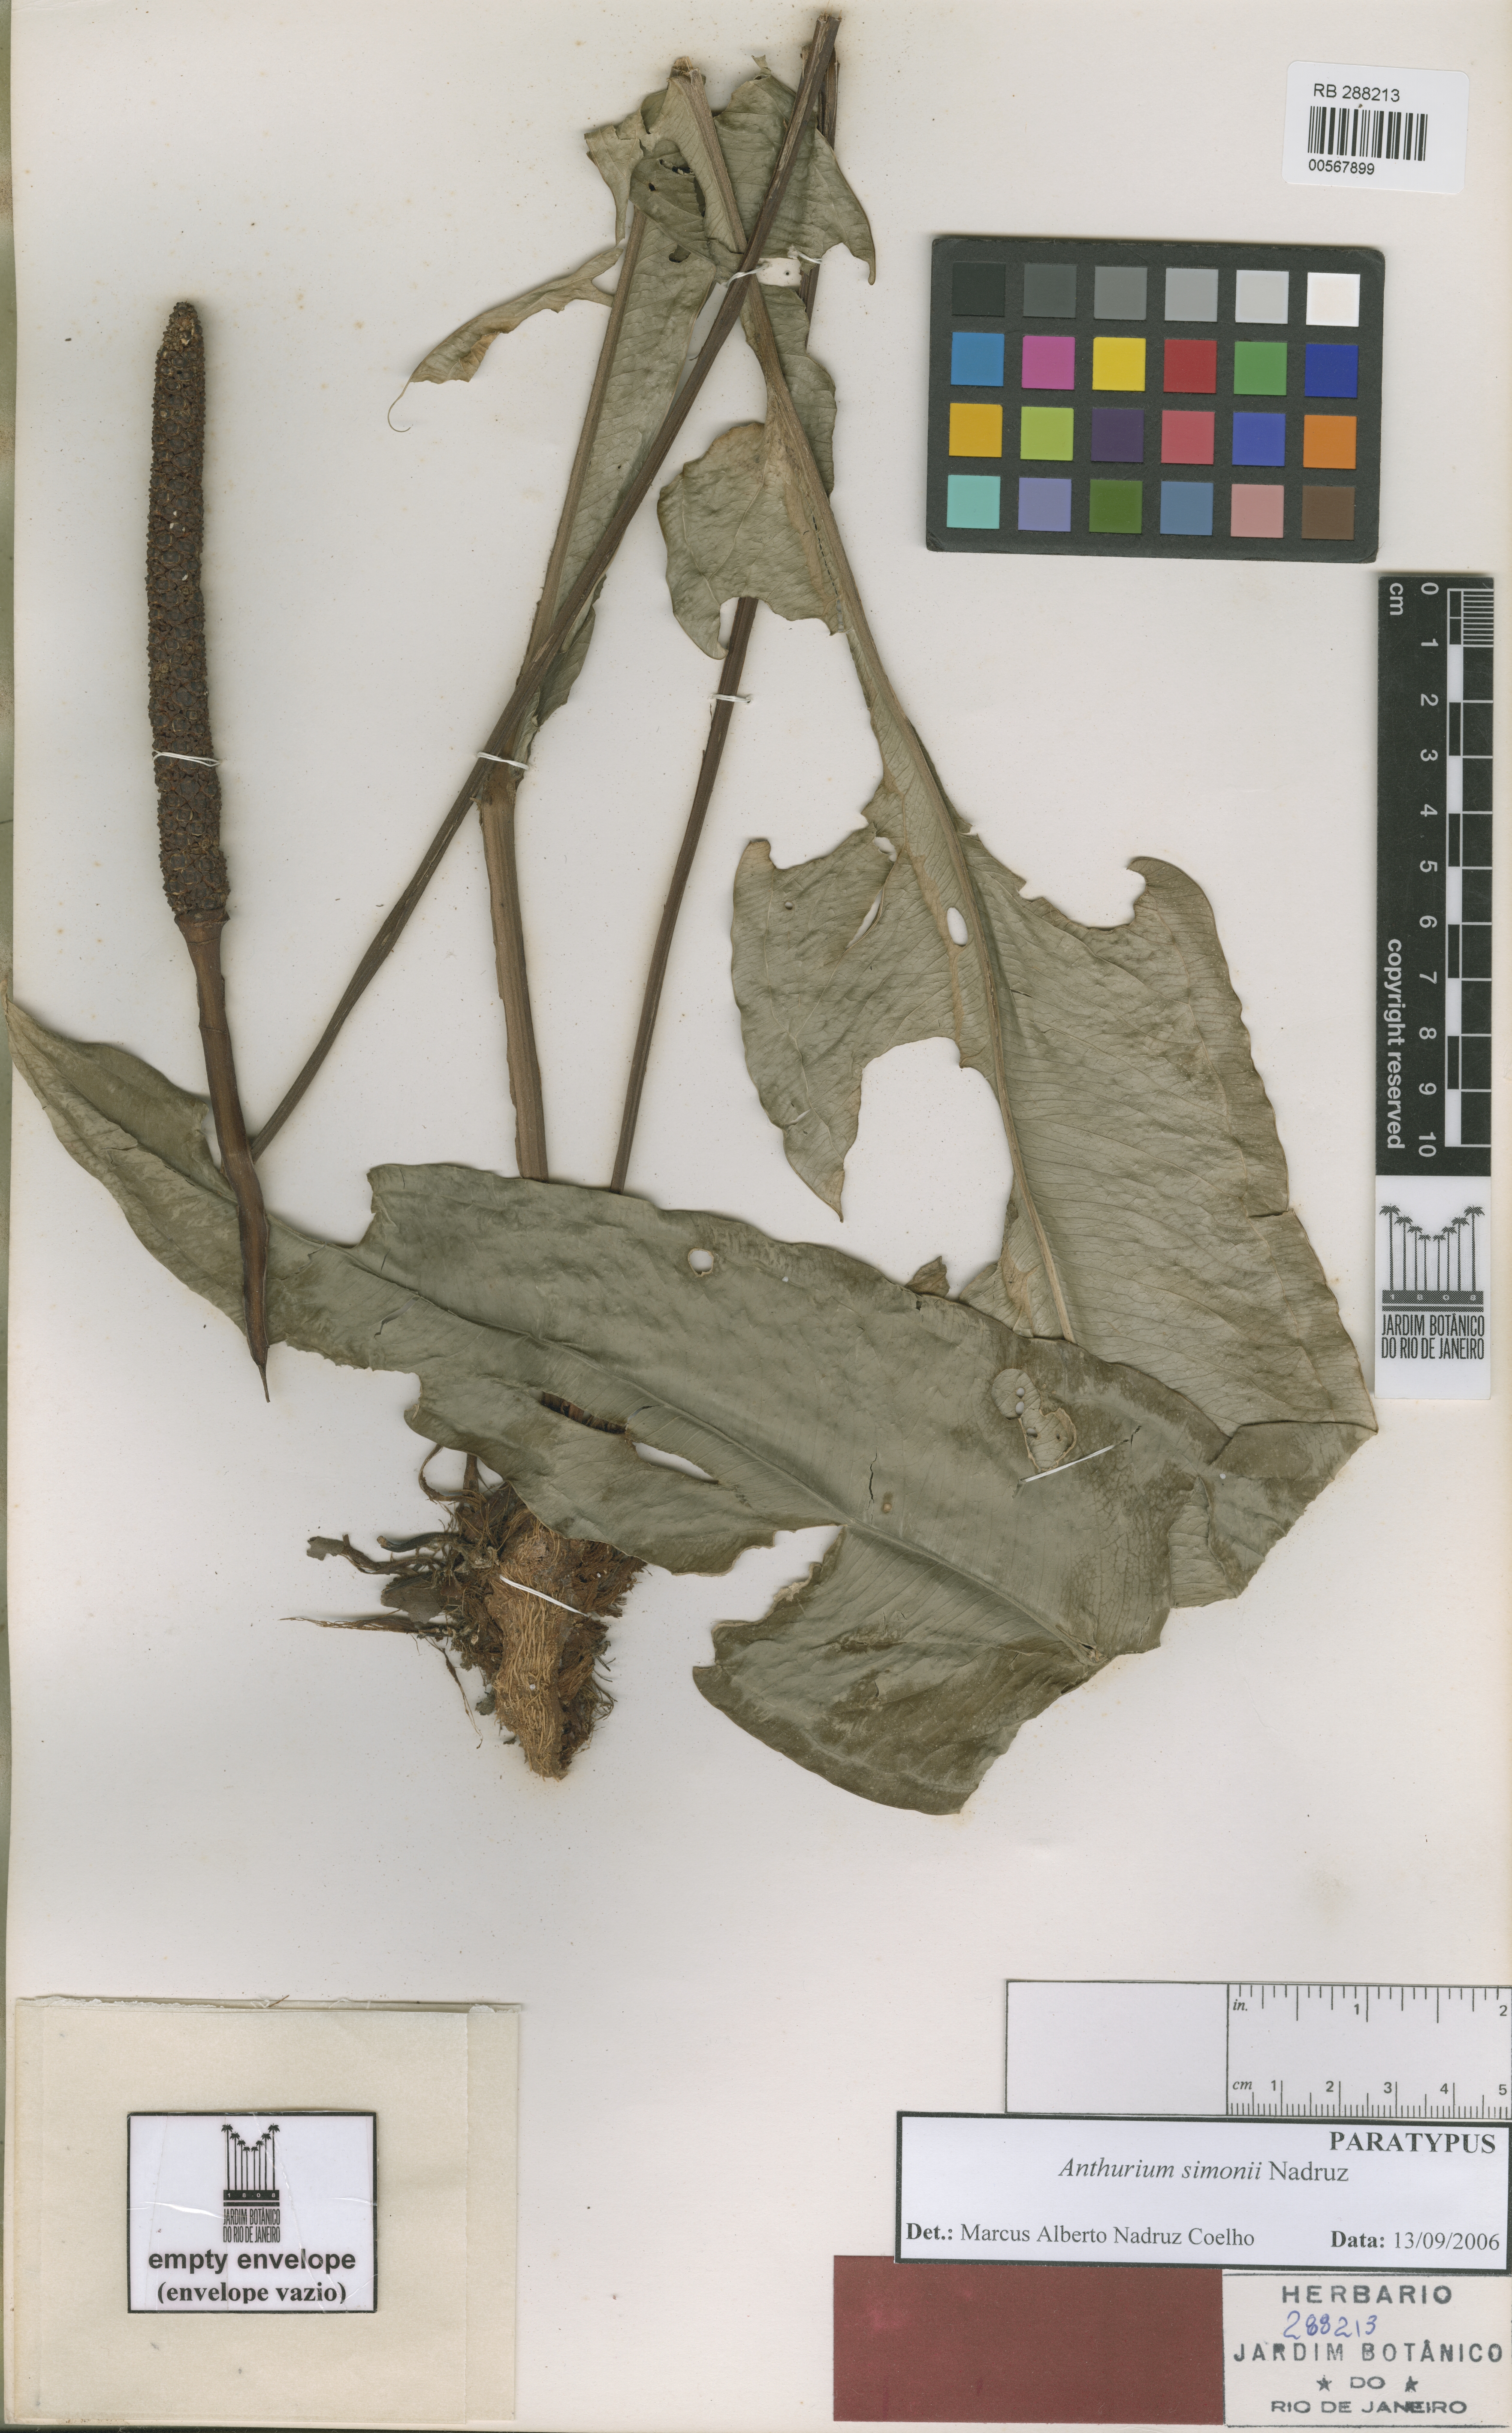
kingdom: Plantae
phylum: Tracheophyta
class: Liliopsida
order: Alismatales
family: Araceae
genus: Anthurium
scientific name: Anthurium simonii
